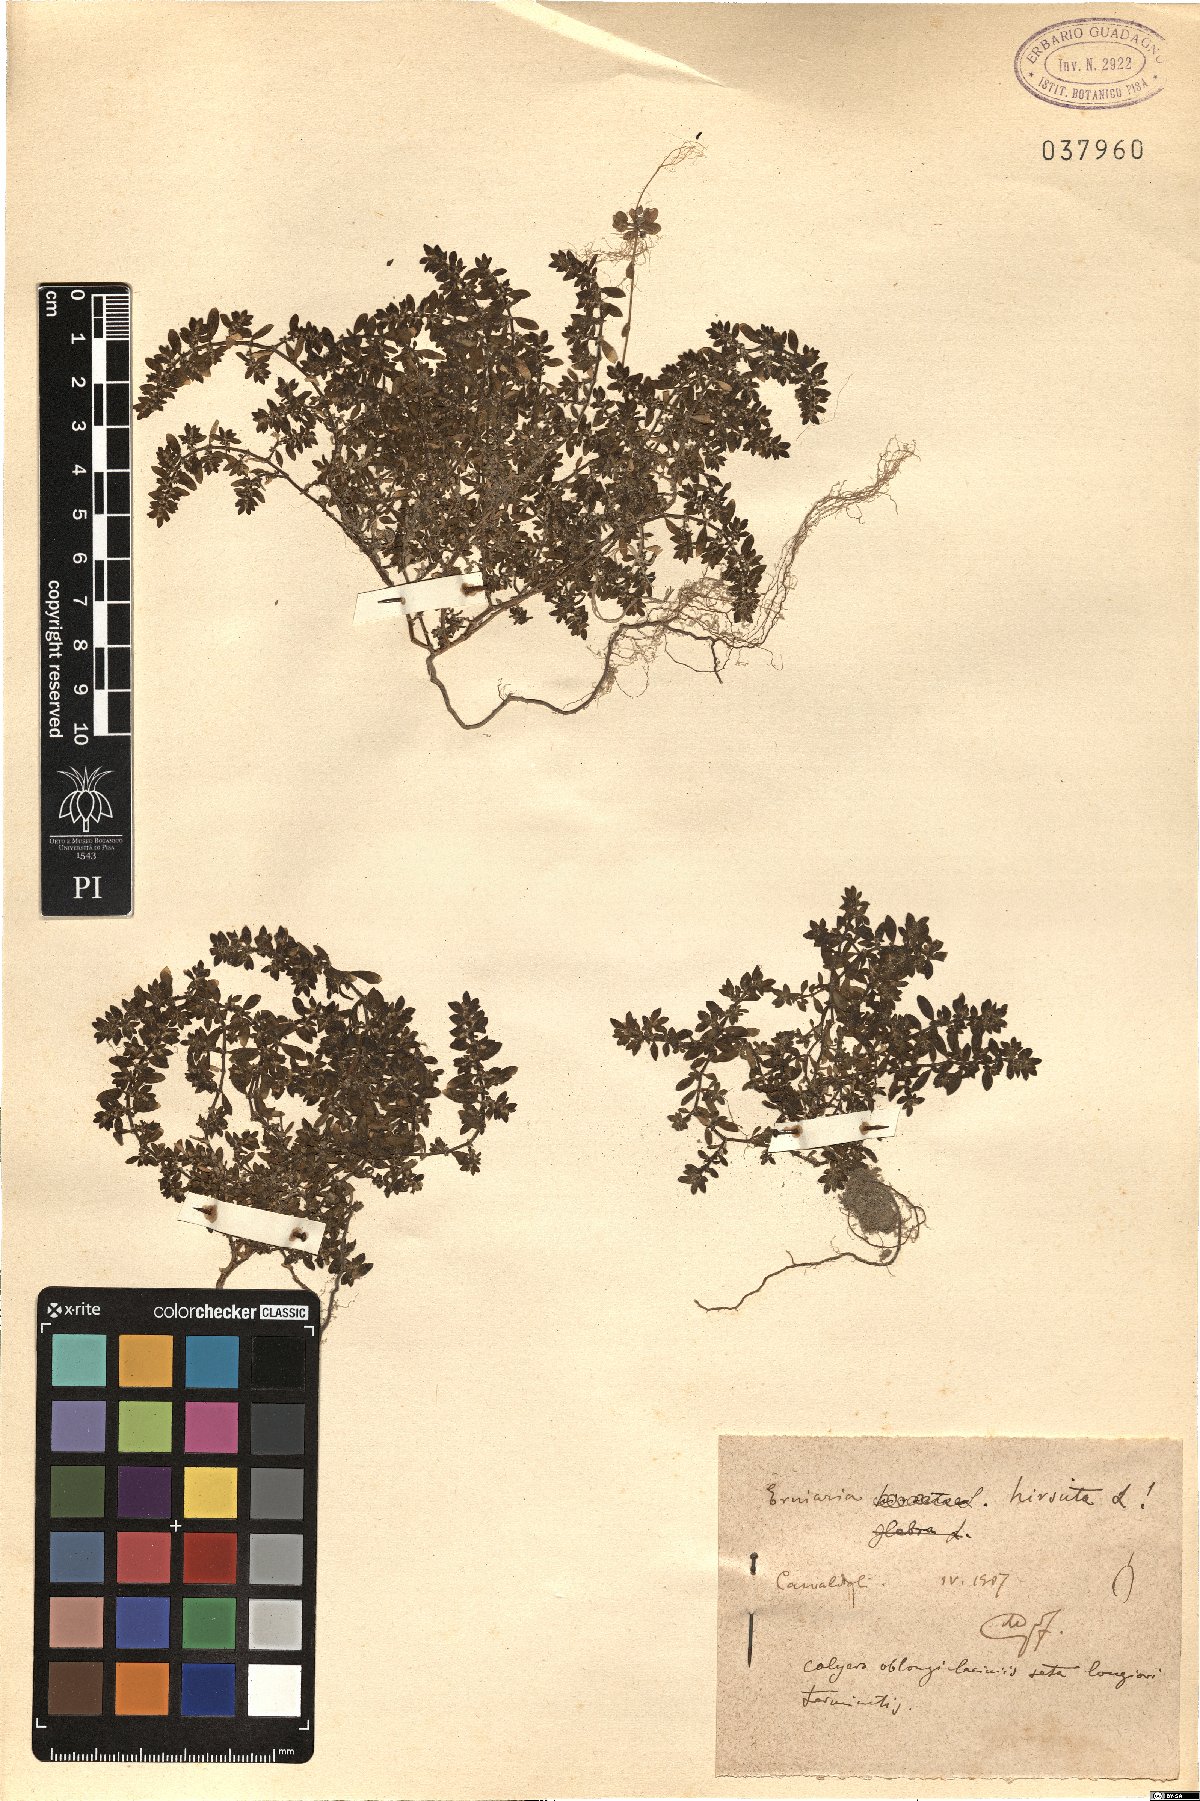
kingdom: Plantae
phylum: Tracheophyta
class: Magnoliopsida
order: Caryophyllales
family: Caryophyllaceae
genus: Herniaria
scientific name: Herniaria hirsuta
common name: Hairy rupturewort
